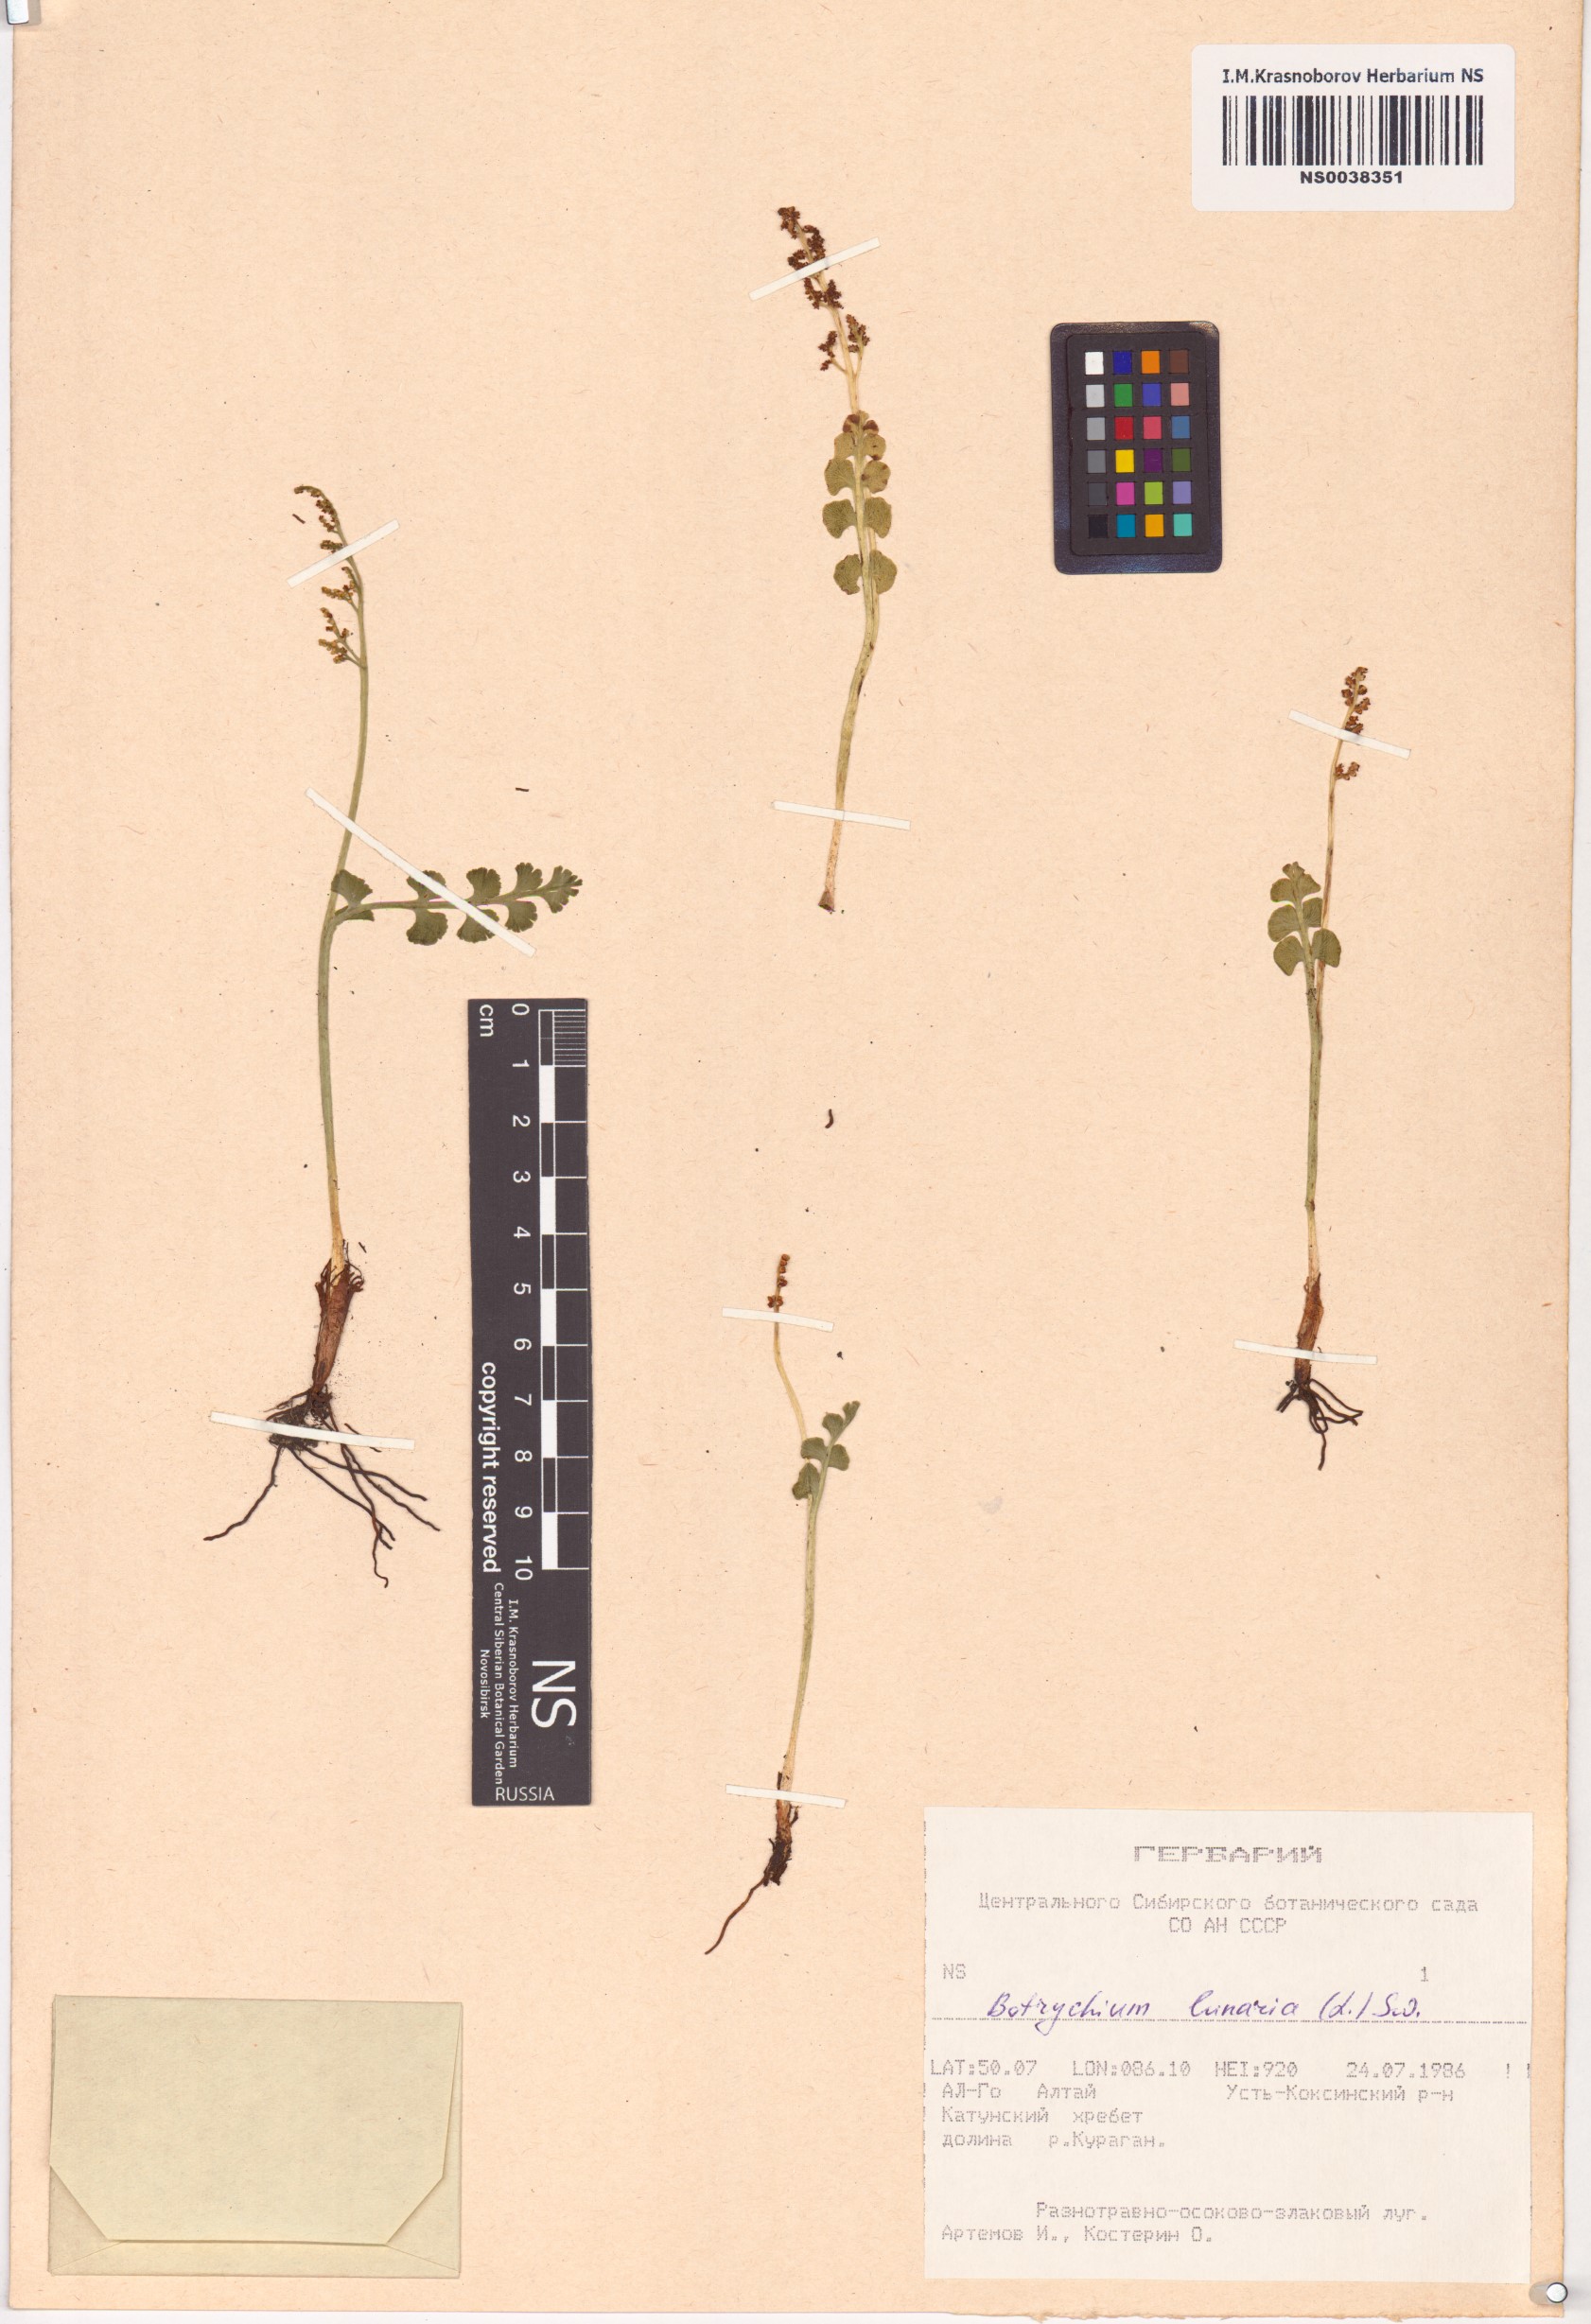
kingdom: Plantae
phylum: Tracheophyta
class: Polypodiopsida
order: Ophioglossales
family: Ophioglossaceae
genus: Botrychium
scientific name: Botrychium lunaria
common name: Moonwort
